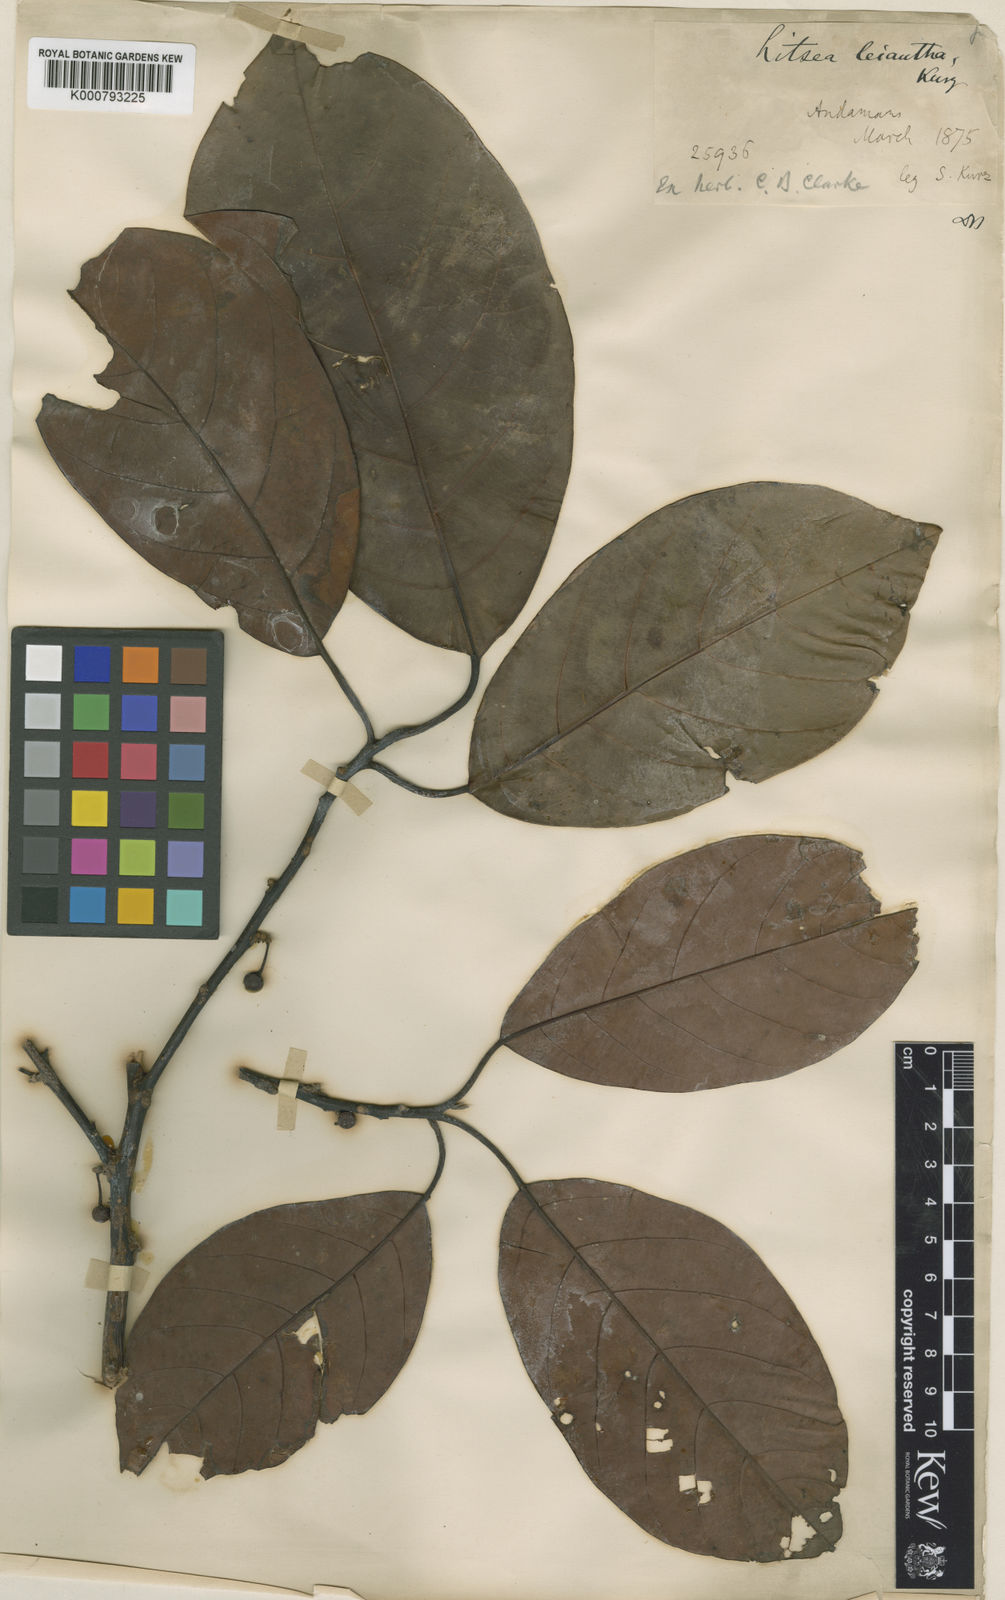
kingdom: Plantae
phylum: Tracheophyta
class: Magnoliopsida
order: Laurales
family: Lauraceae
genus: Litsea
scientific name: Litsea leiantha
